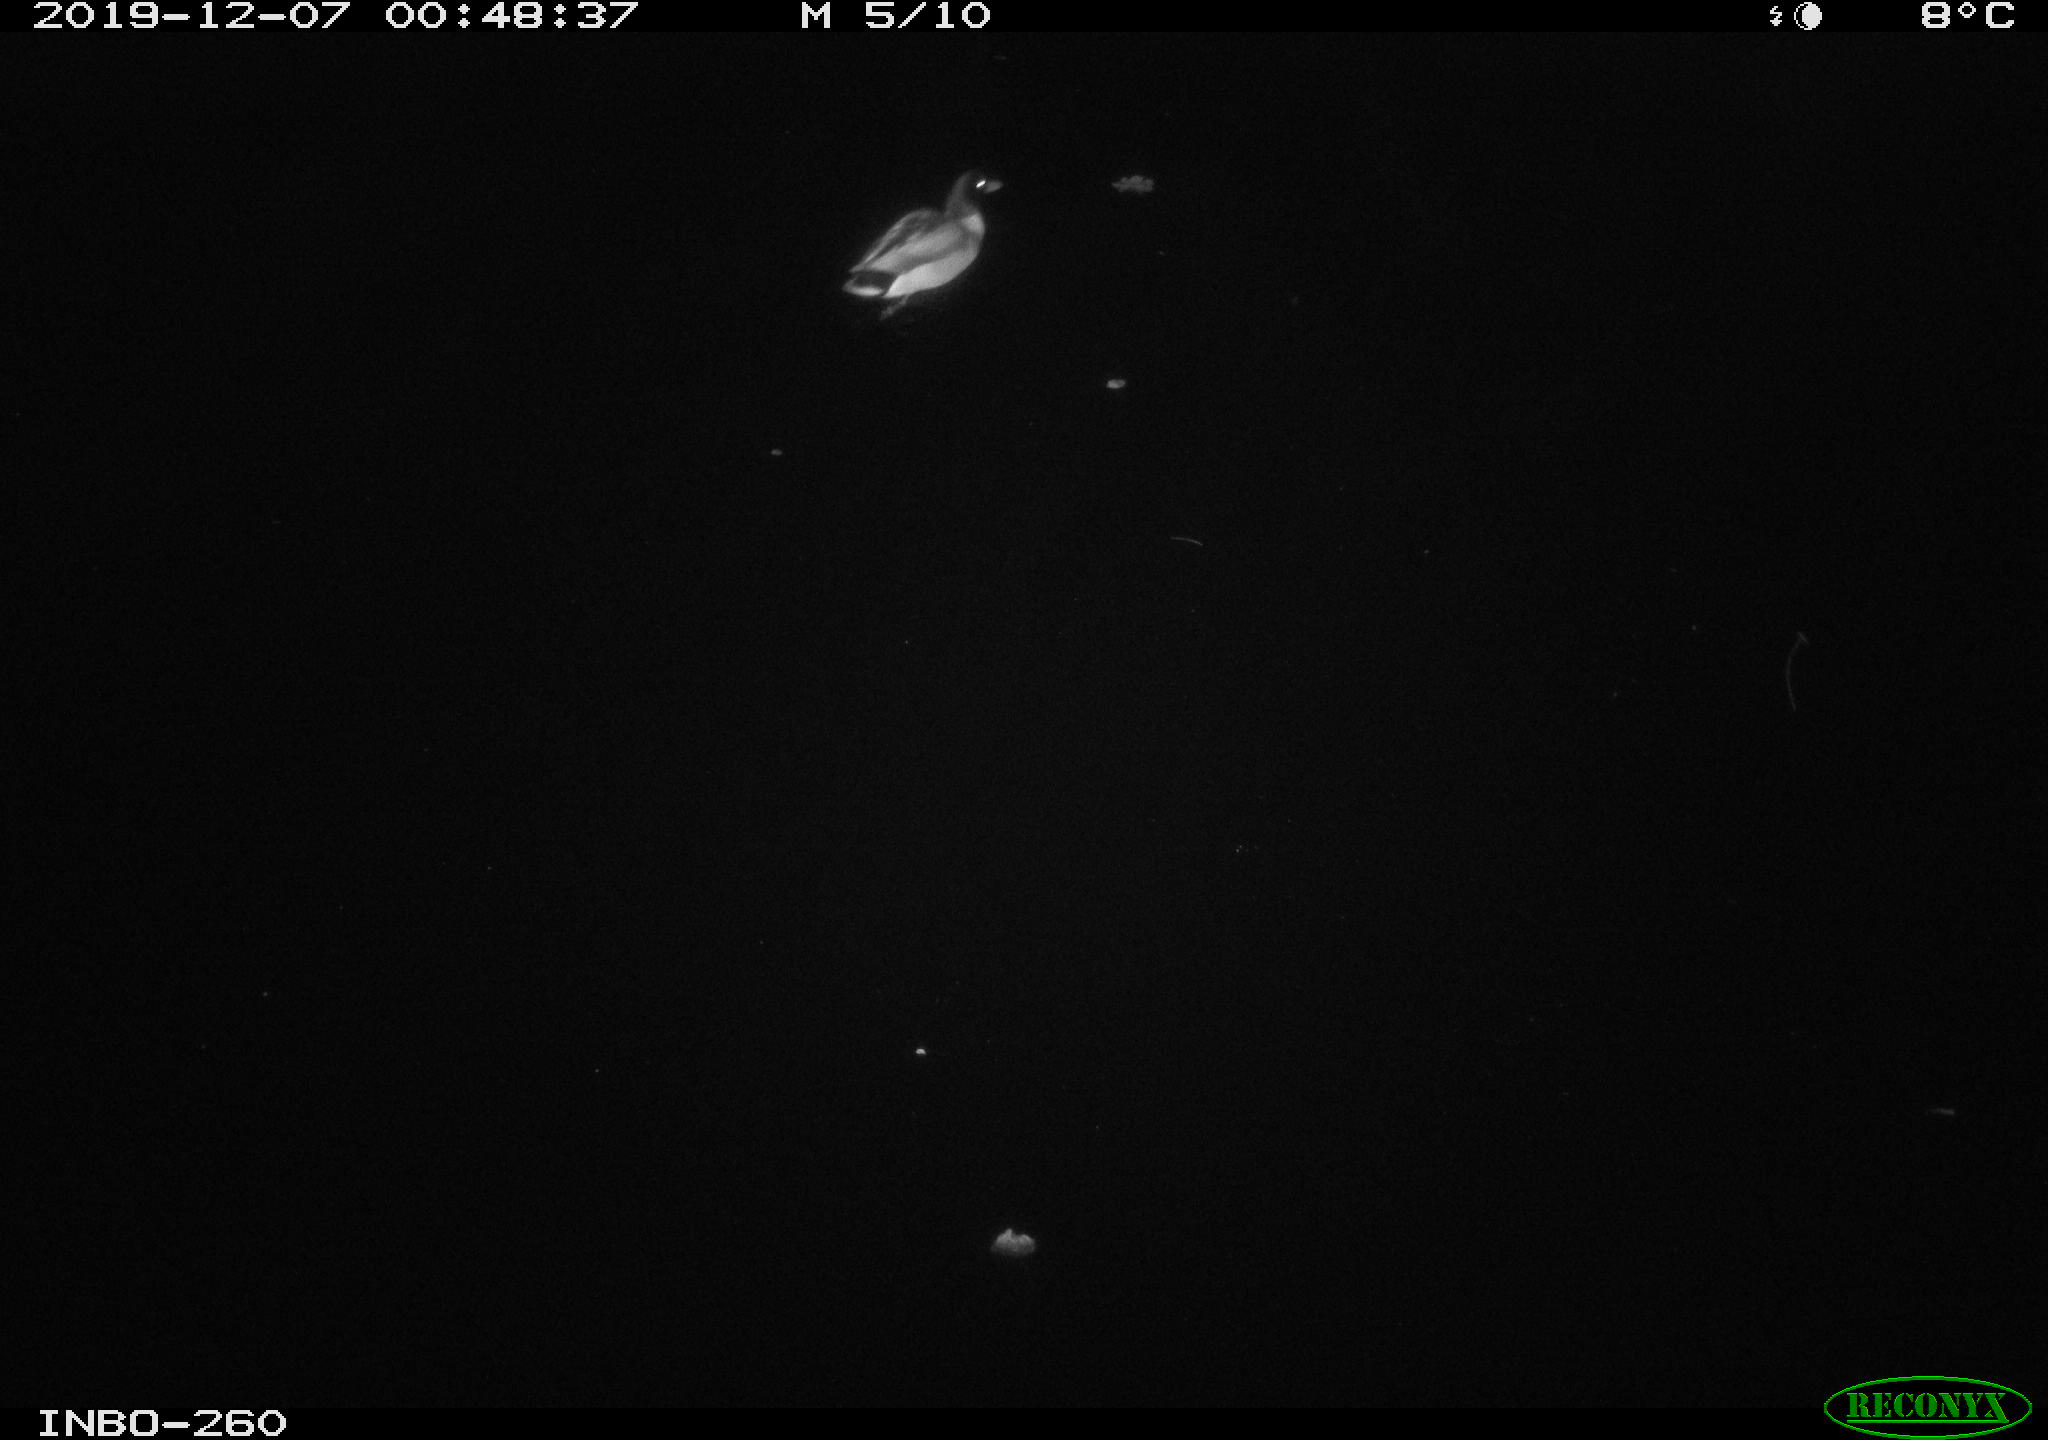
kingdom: Animalia
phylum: Chordata
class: Aves
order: Anseriformes
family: Anatidae
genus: Anas
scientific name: Anas platyrhynchos
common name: Mallard
